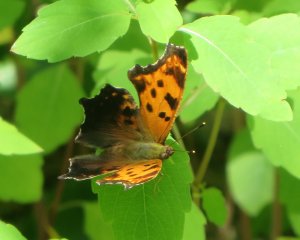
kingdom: Animalia
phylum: Arthropoda
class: Insecta
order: Lepidoptera
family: Nymphalidae
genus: Polygonia
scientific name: Polygonia interrogationis
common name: Question Mark
